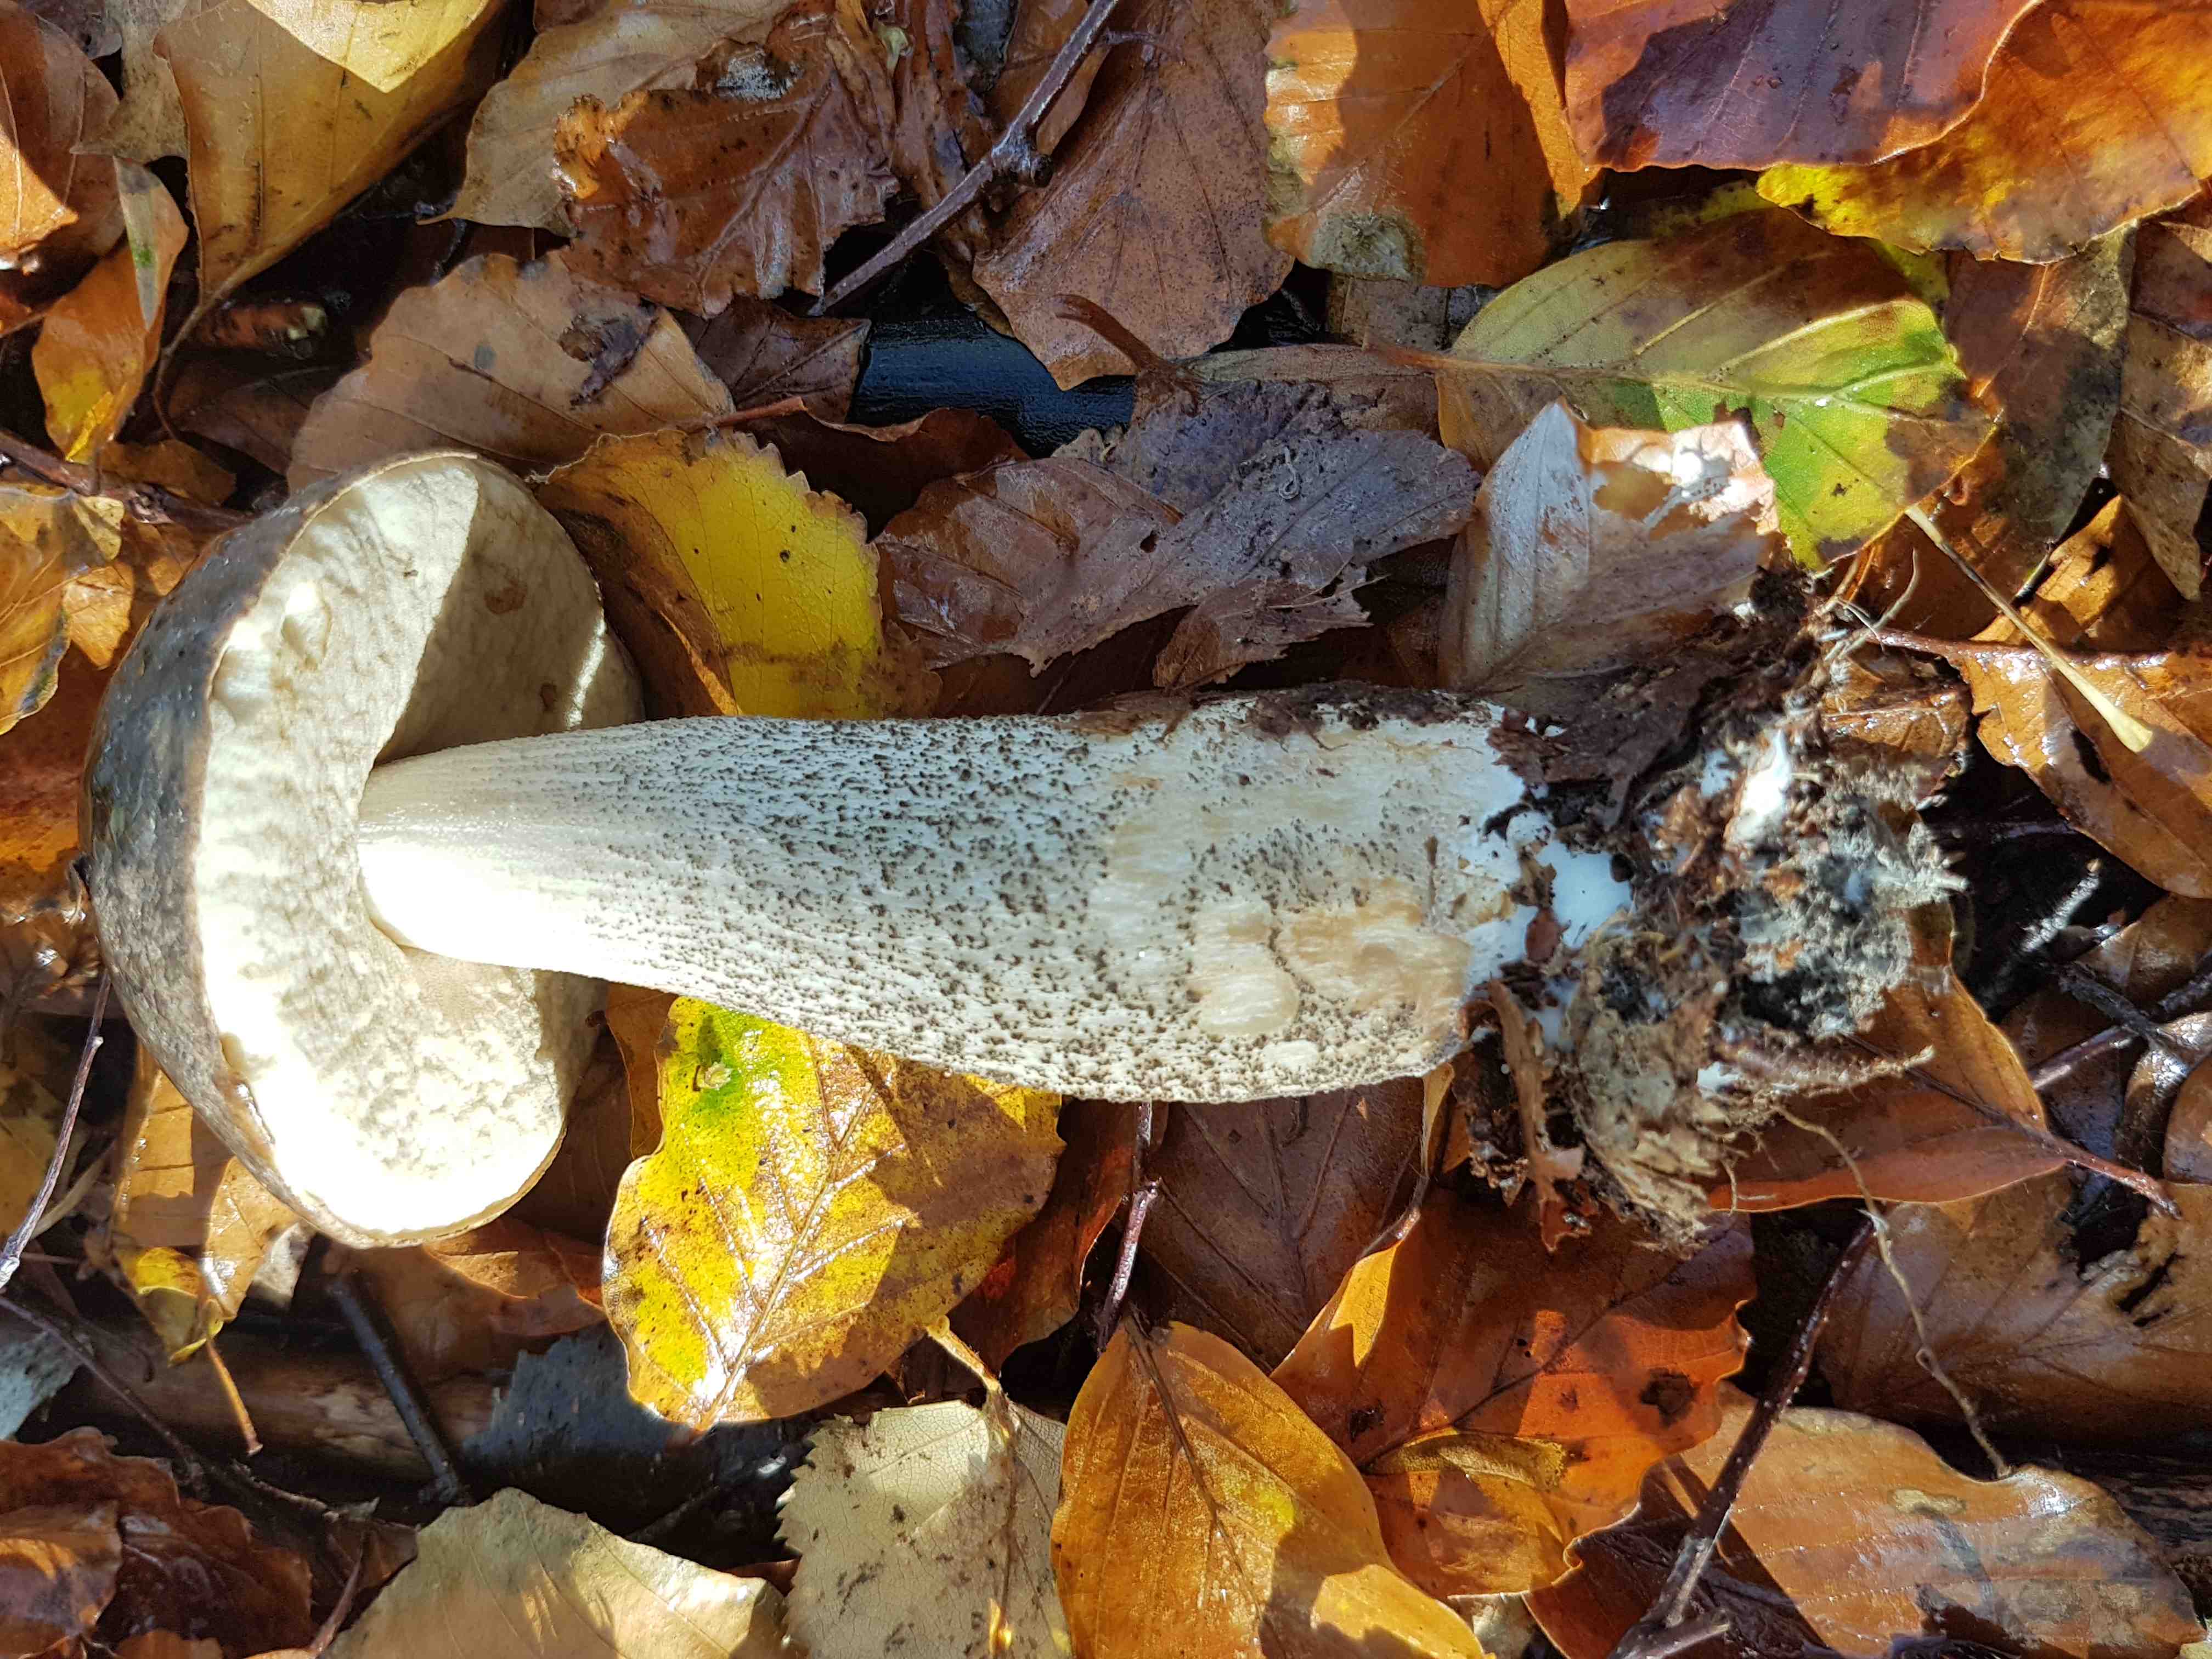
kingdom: Fungi
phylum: Basidiomycota
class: Agaricomycetes
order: Boletales
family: Boletaceae
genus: Leccinum
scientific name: Leccinum scabrum
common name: brun skælrørhat
